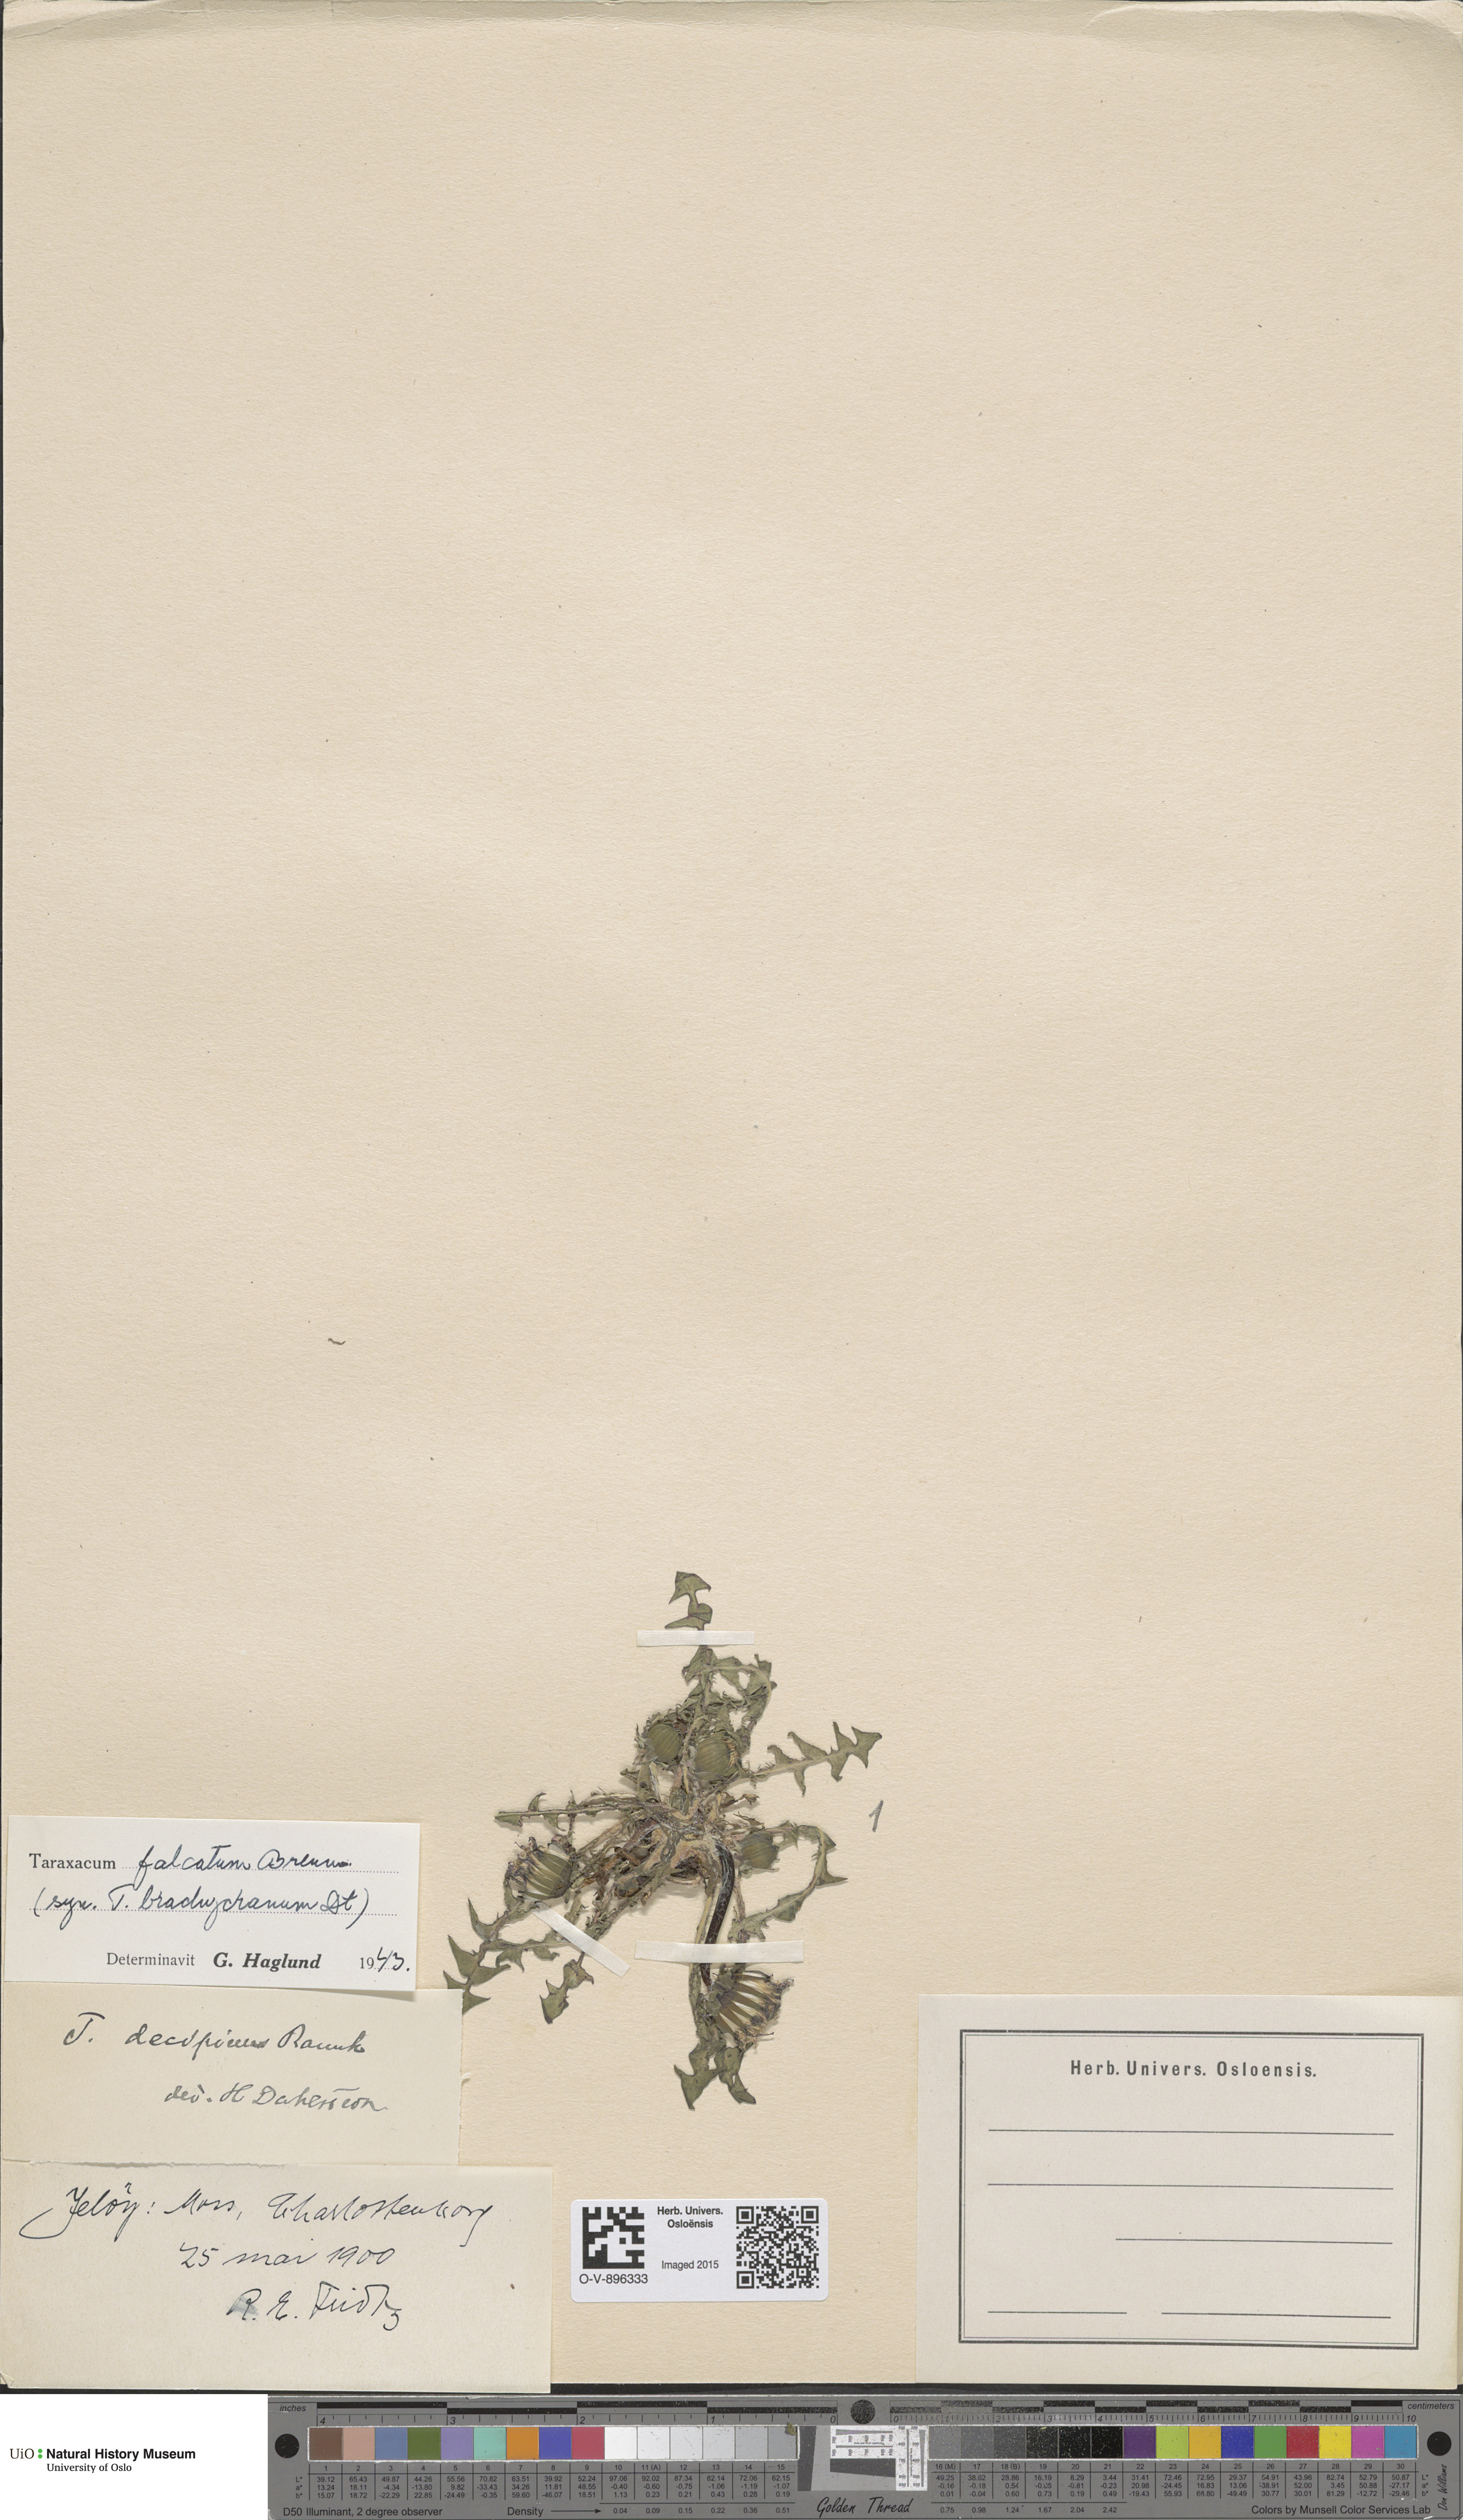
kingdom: Plantae
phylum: Tracheophyta
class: Magnoliopsida
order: Asterales
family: Asteraceae
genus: Taraxacum
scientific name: Taraxacum falcatum
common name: Narrow-lobed dandelion
